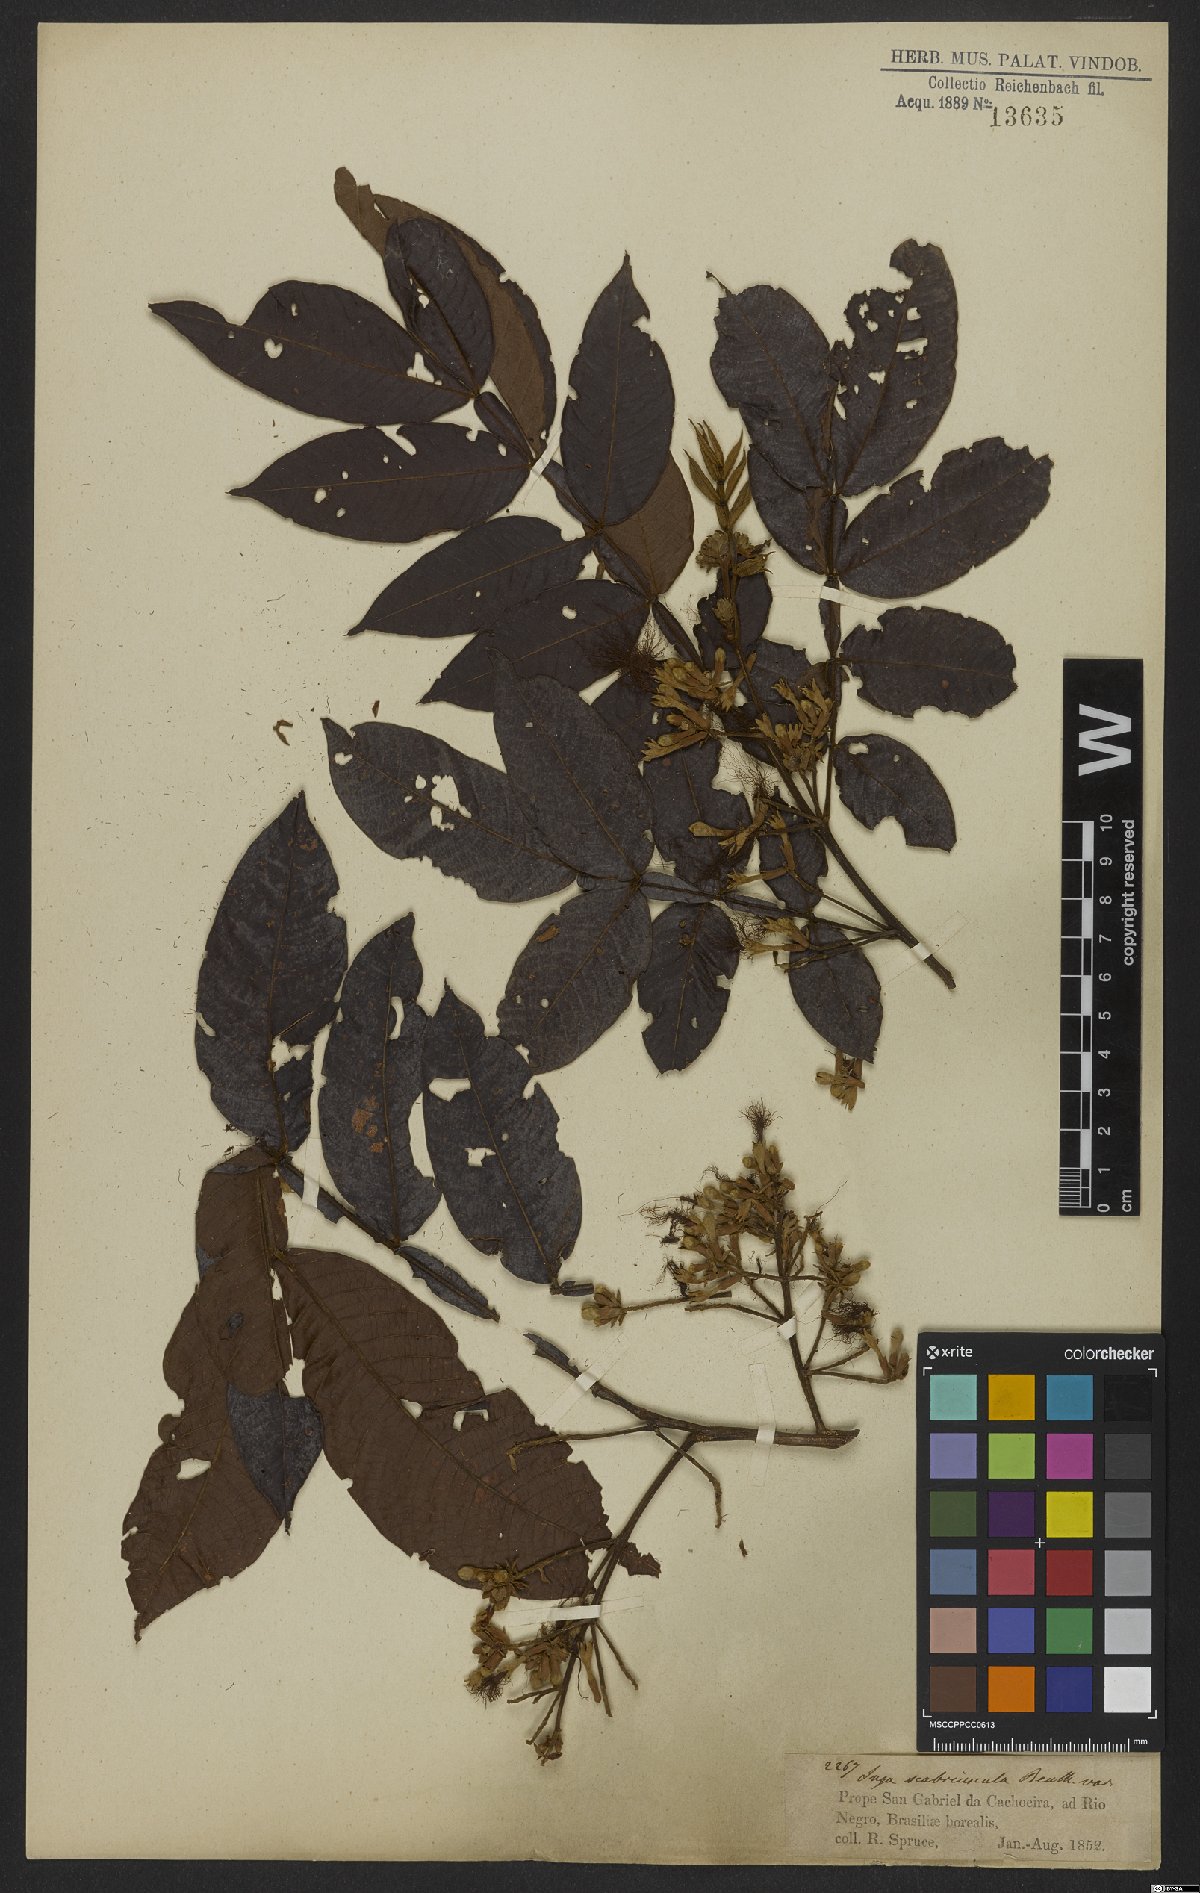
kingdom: Plantae
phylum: Tracheophyta
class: Magnoliopsida
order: Fabales
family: Fabaceae
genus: Inga
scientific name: Inga edulis
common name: Ice cream bean
